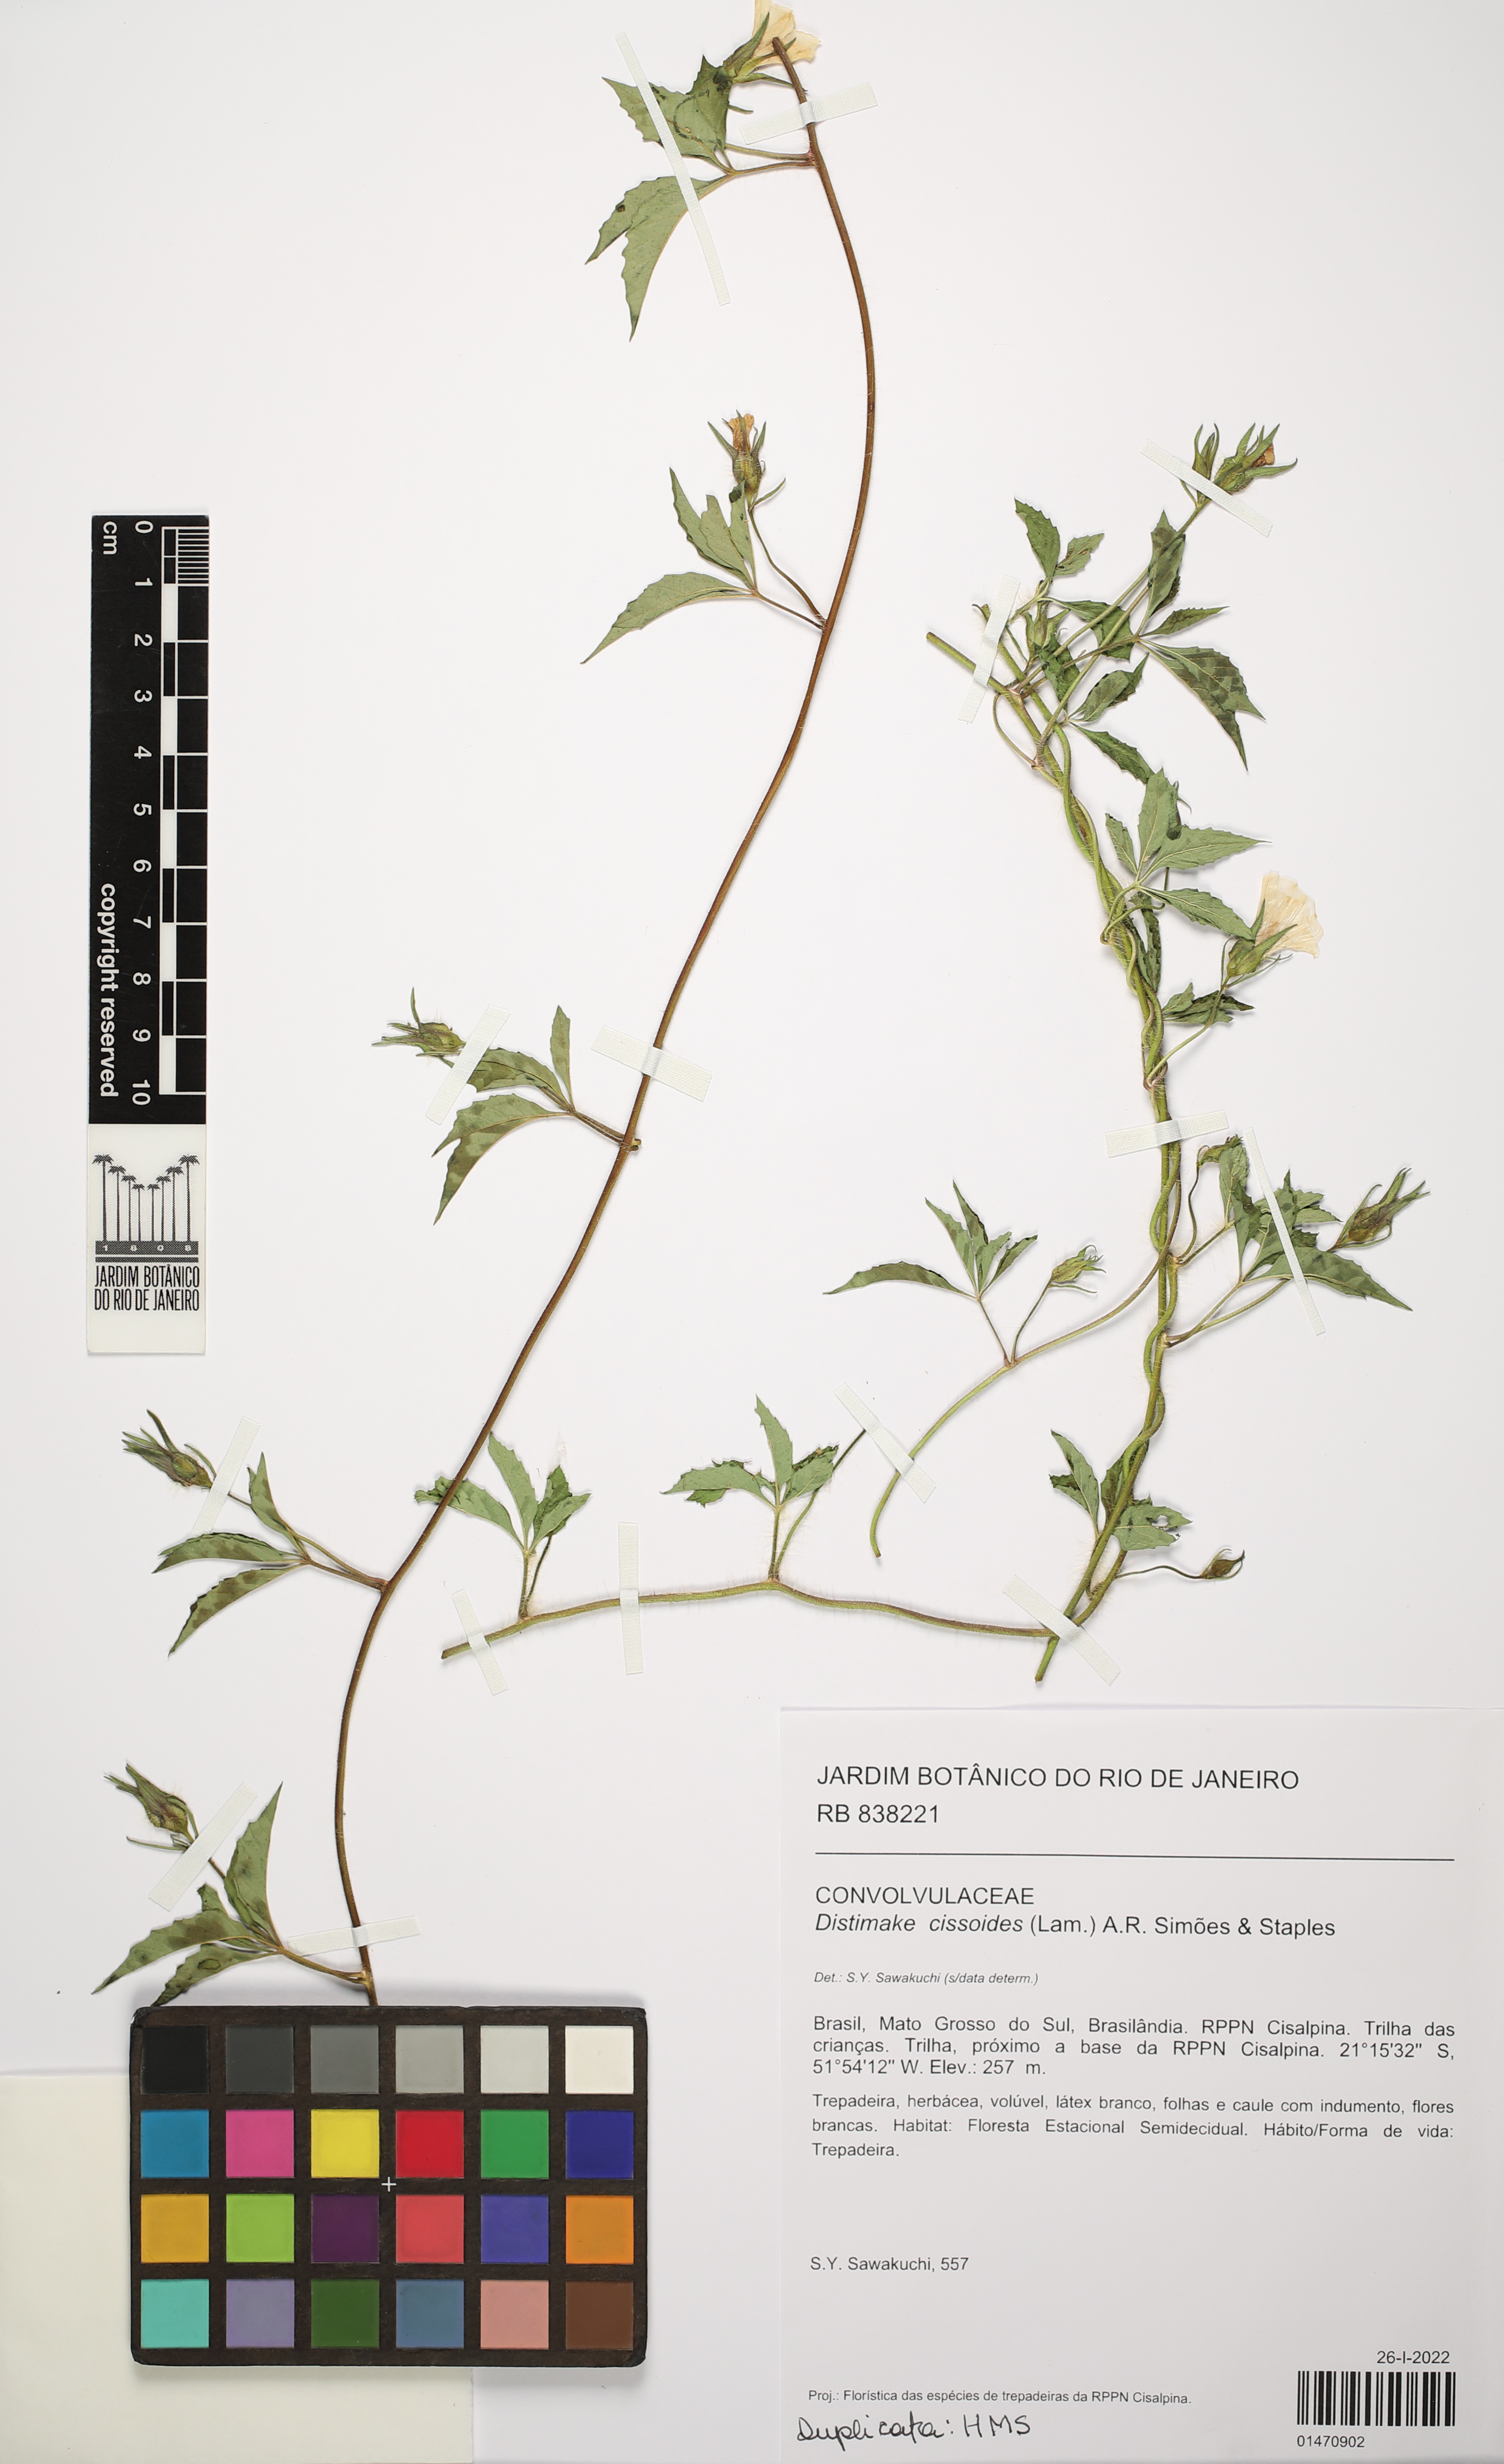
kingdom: Plantae
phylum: Tracheophyta
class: Magnoliopsida
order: Solanales
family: Convolvulaceae
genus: Distimake
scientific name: Distimake cissoides
